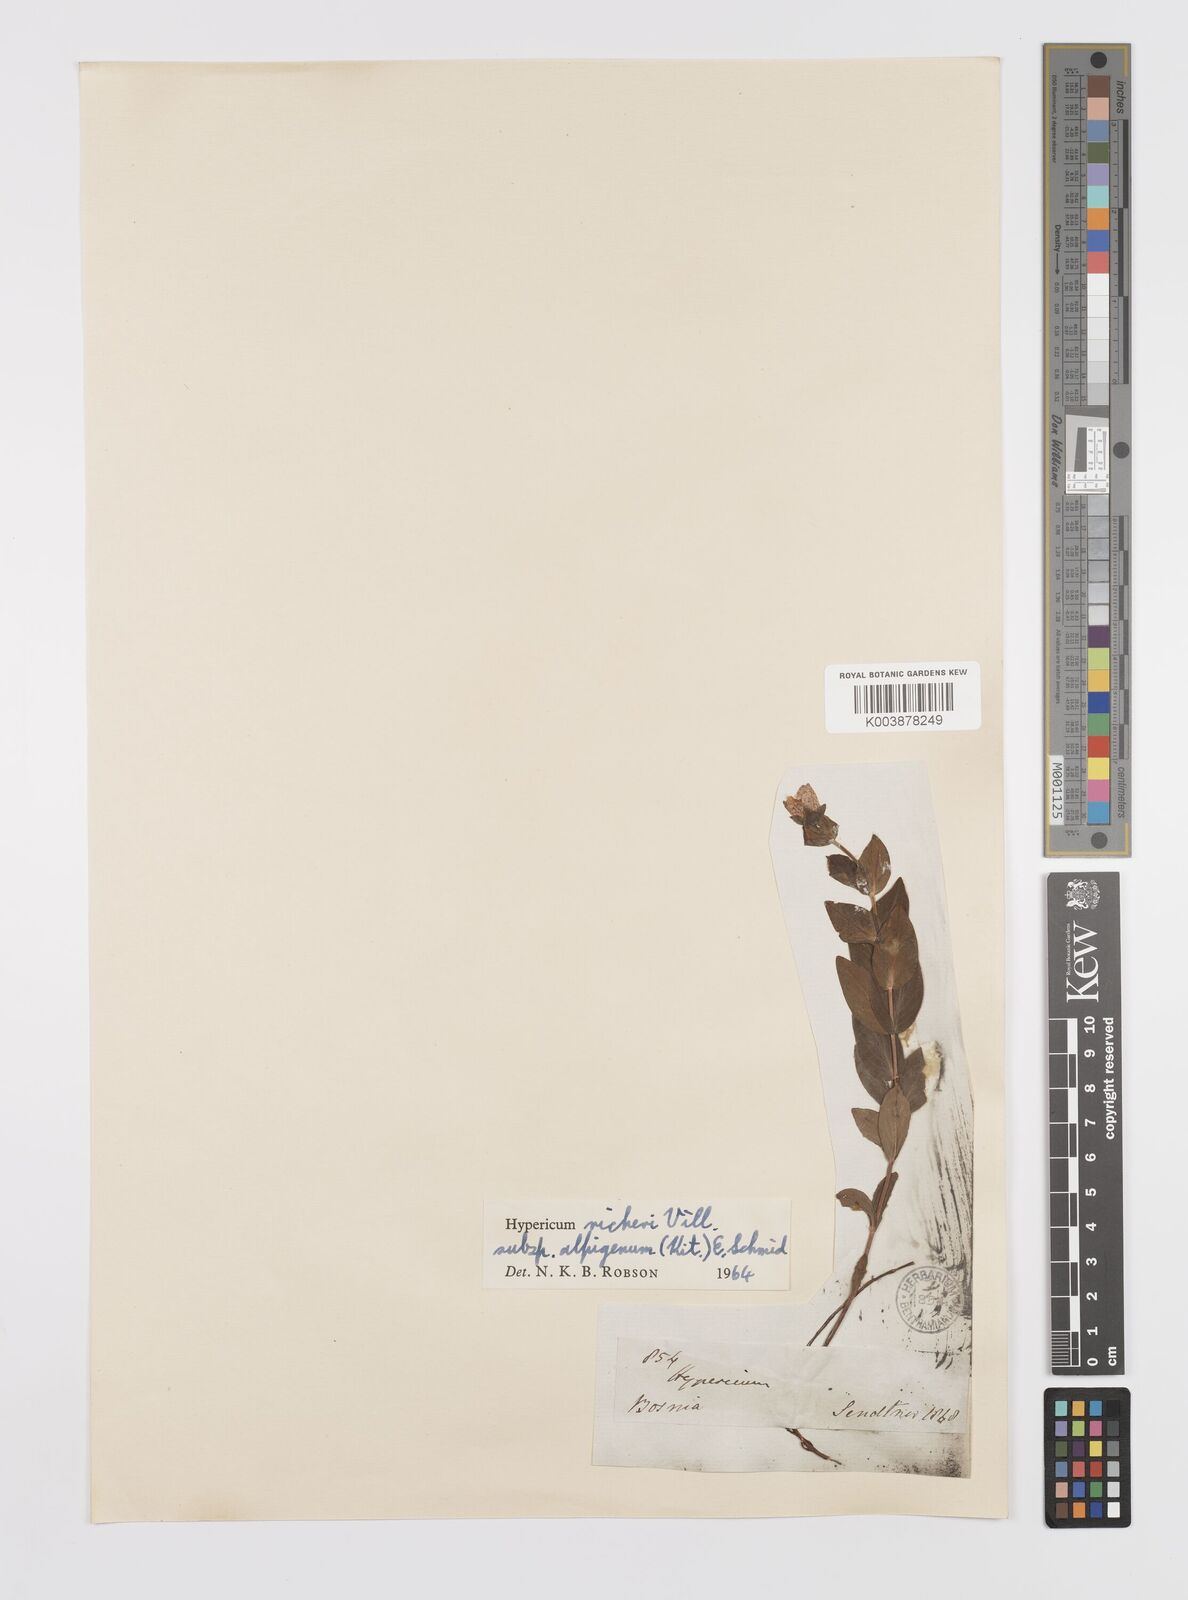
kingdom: Plantae
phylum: Tracheophyta
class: Magnoliopsida
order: Malpighiales
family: Hypericaceae
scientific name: Hypericaceae
